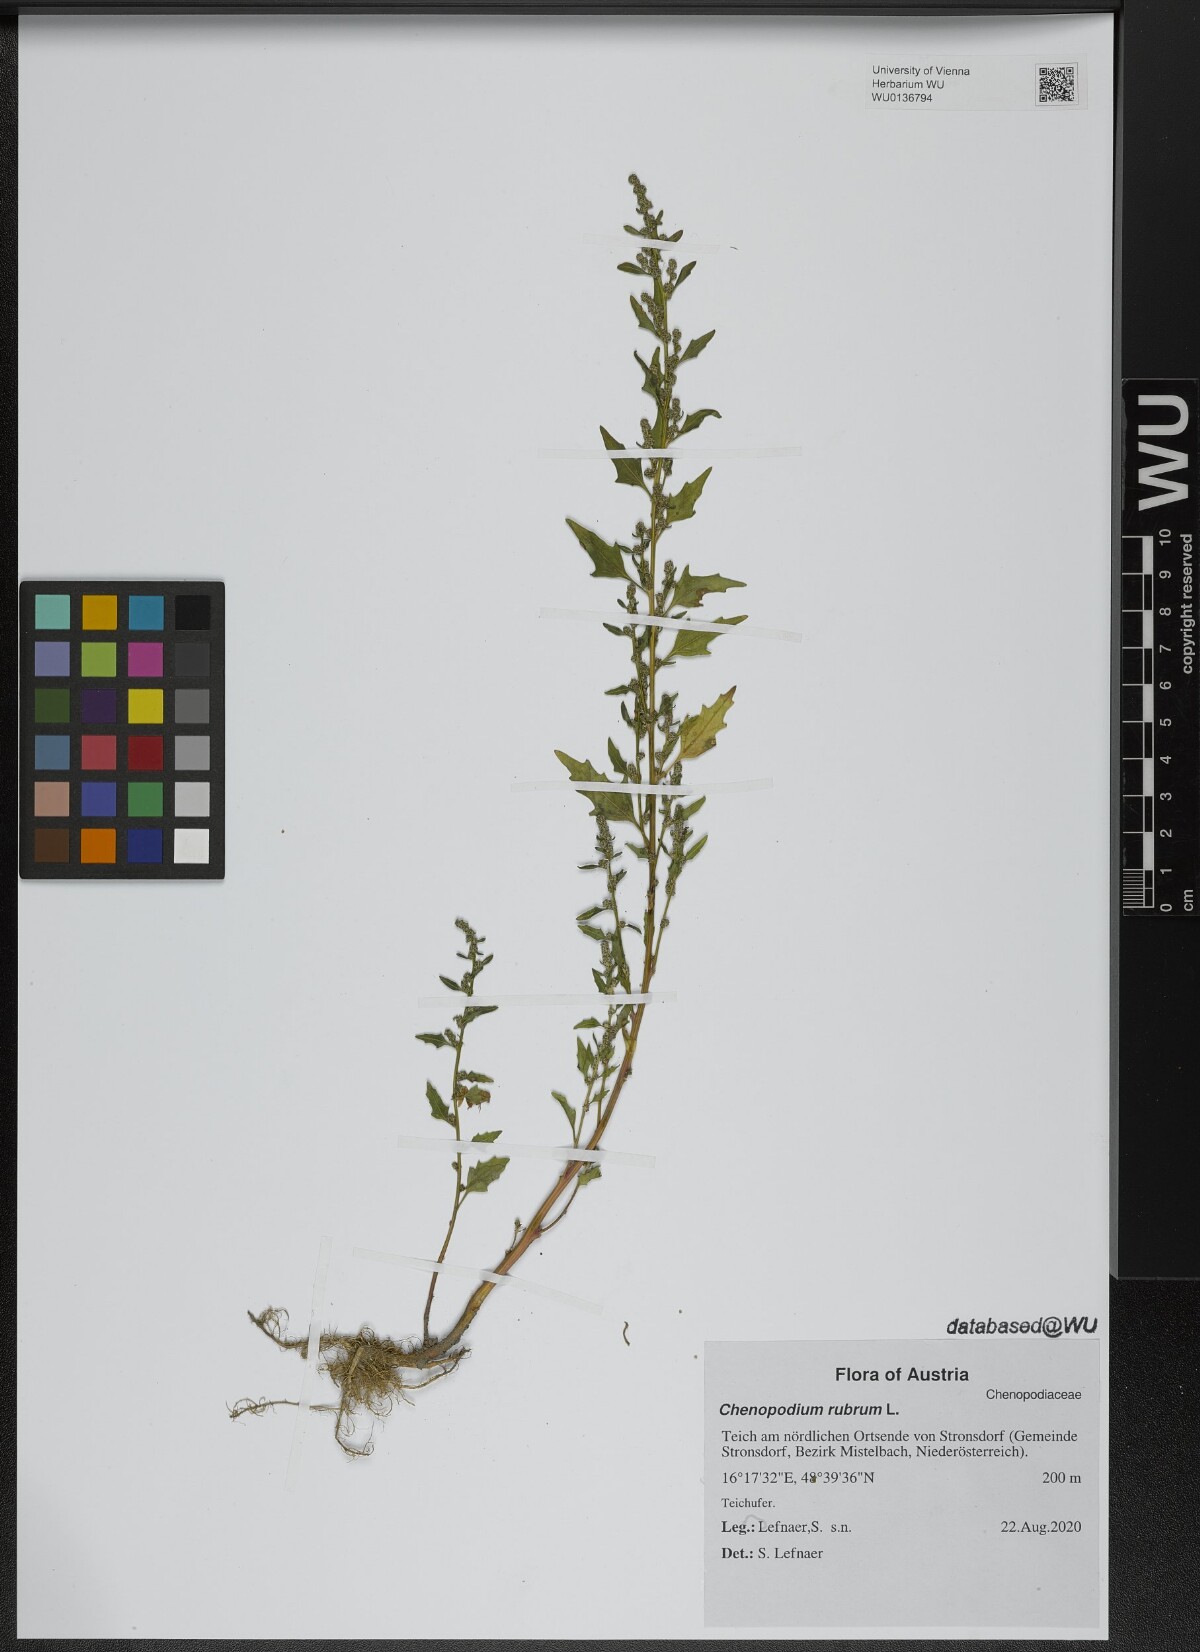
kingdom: Plantae
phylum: Tracheophyta
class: Magnoliopsida
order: Caryophyllales
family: Amaranthaceae
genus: Oxybasis
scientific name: Oxybasis rubra
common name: Red goosefoot
